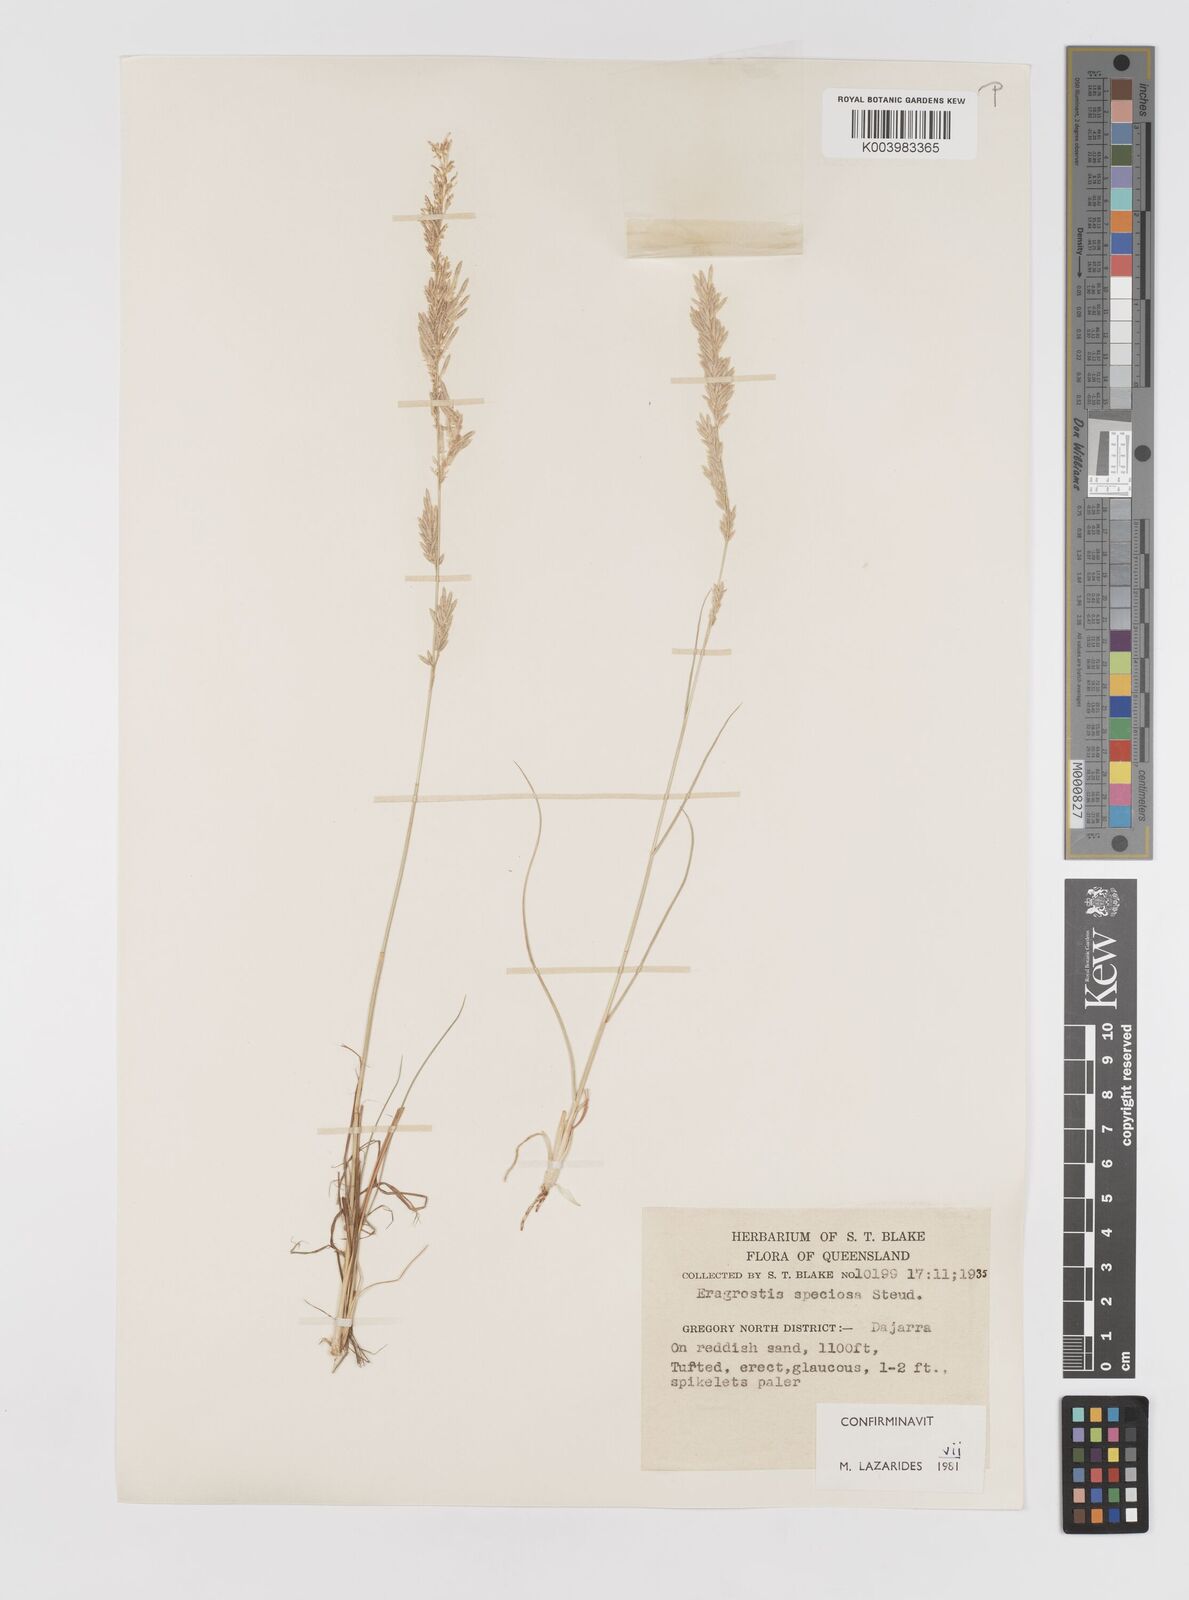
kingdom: Plantae
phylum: Tracheophyta
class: Liliopsida
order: Poales
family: Poaceae
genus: Eragrostis
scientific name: Eragrostis speciosa
